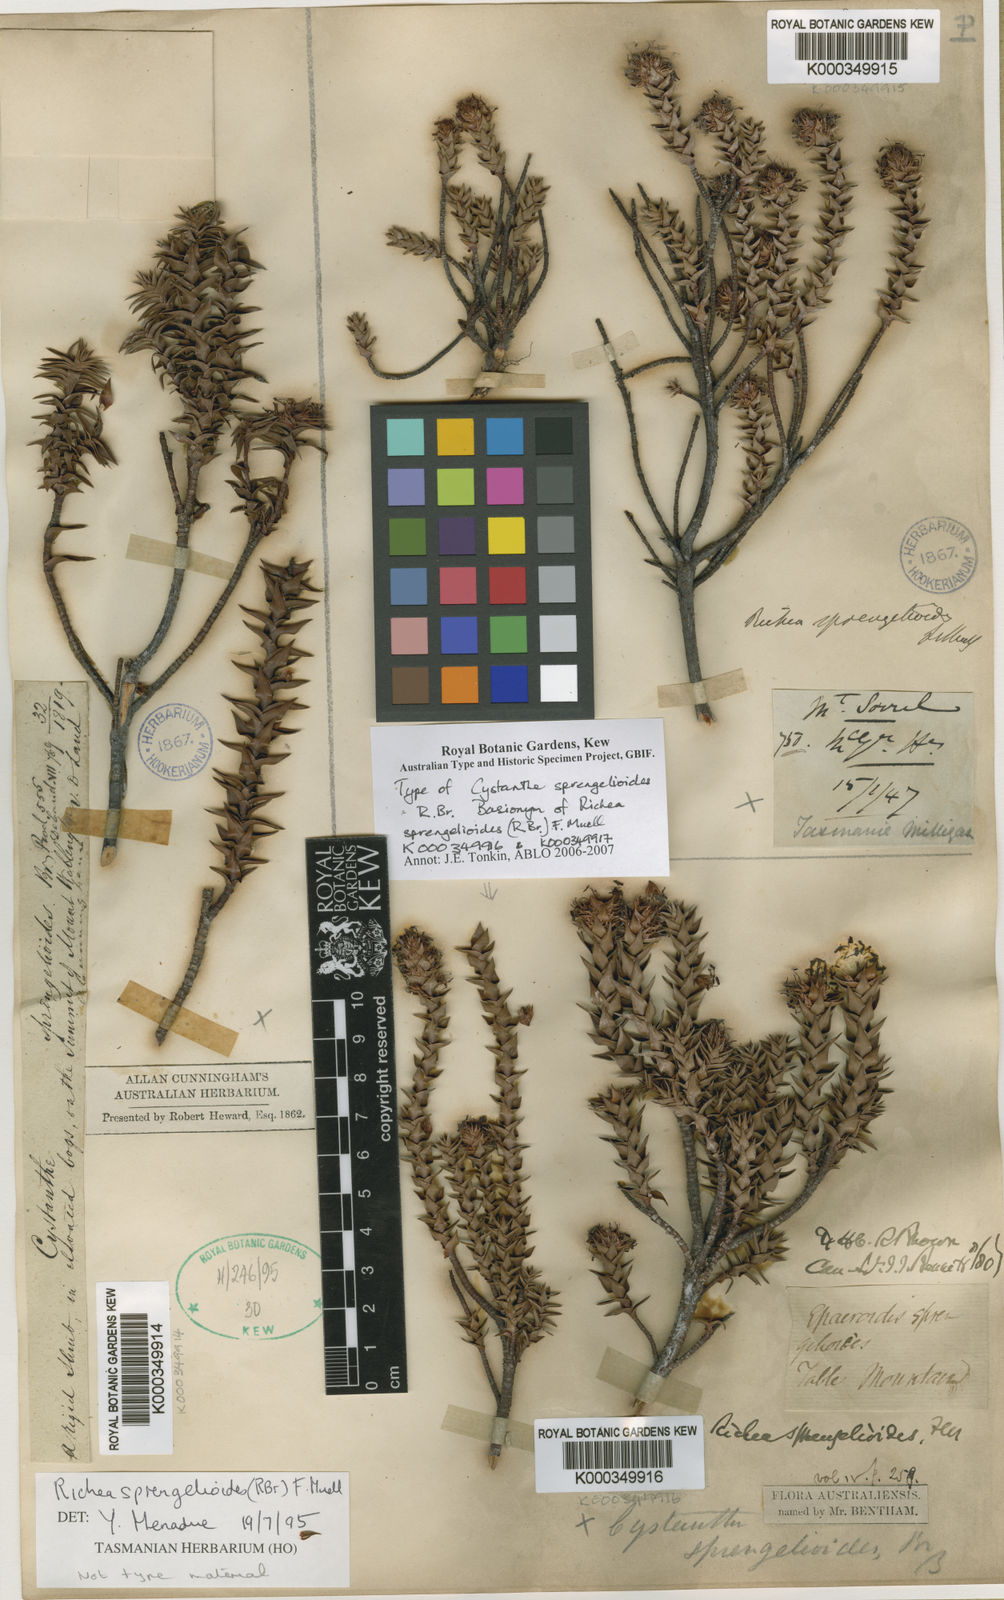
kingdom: Plantae
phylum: Tracheophyta
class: Magnoliopsida
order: Ericales
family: Ericaceae
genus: Dracophyllum
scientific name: Dracophyllum sprengelioides
